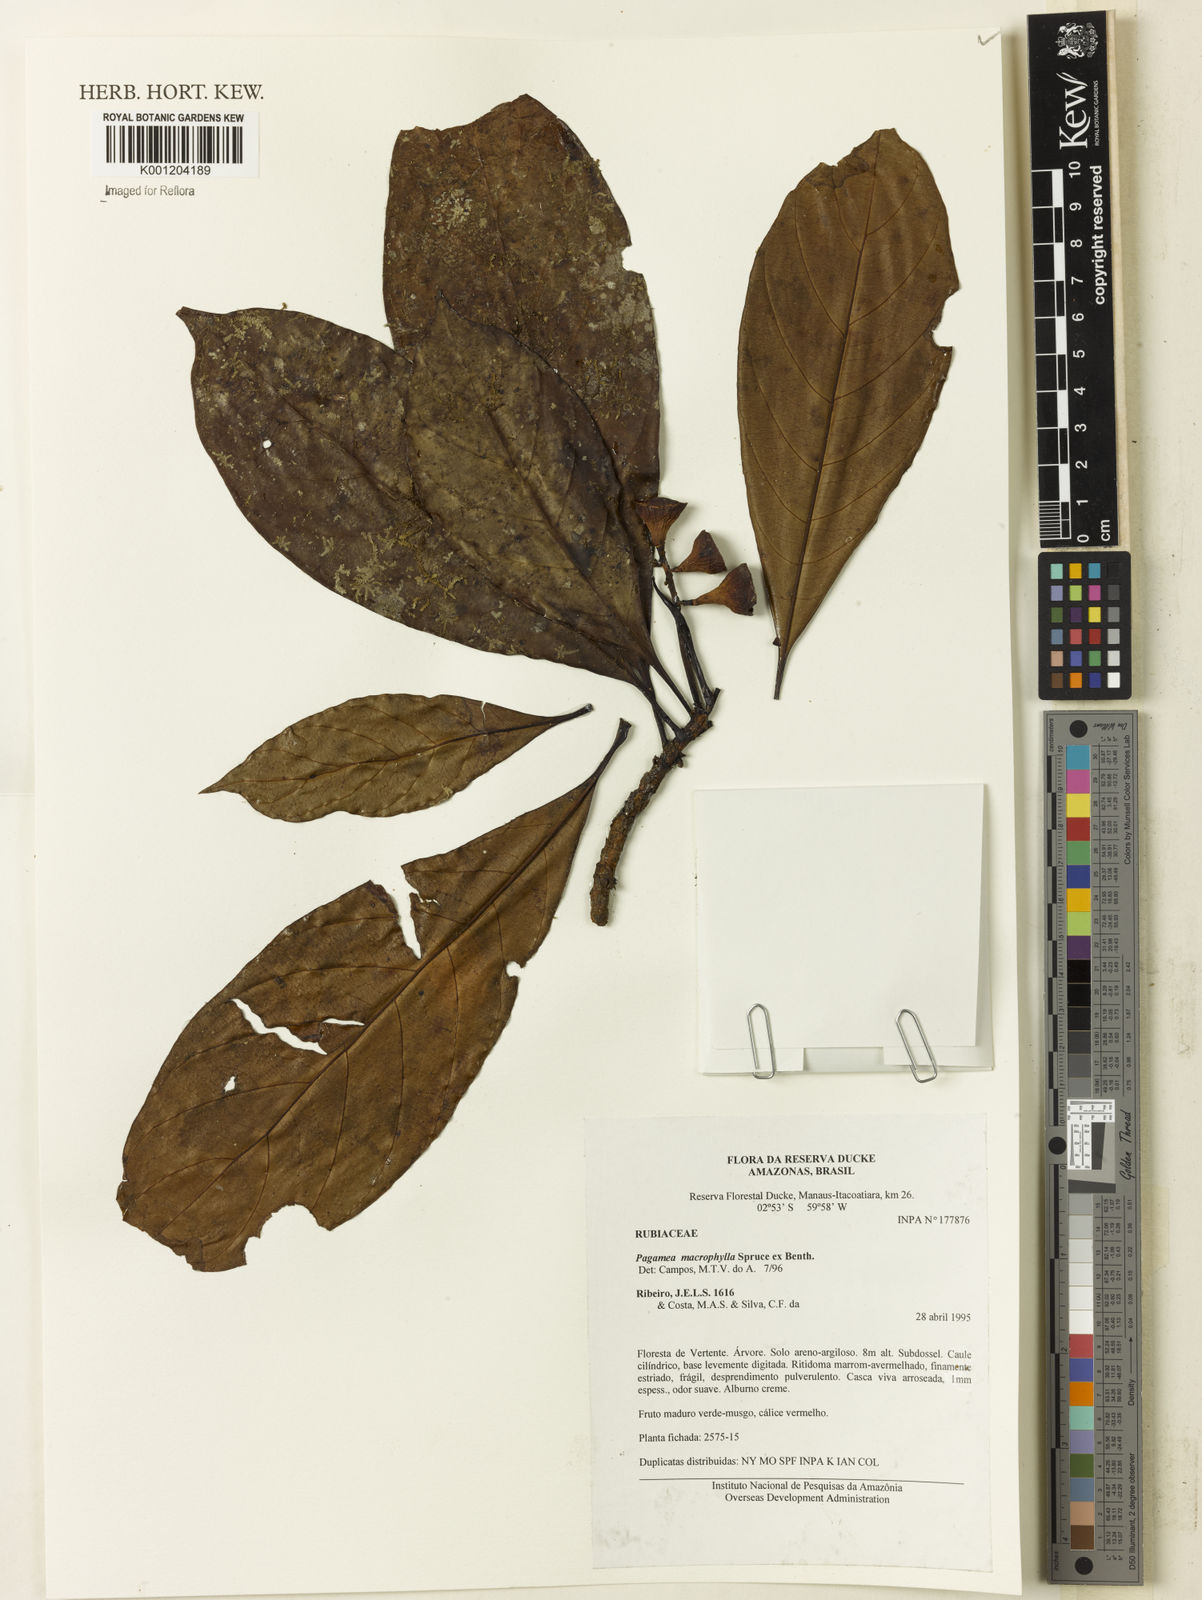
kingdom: Plantae
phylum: Tracheophyta
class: Magnoliopsida
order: Gentianales
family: Rubiaceae
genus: Pagamea
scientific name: Pagamea macrophylla
